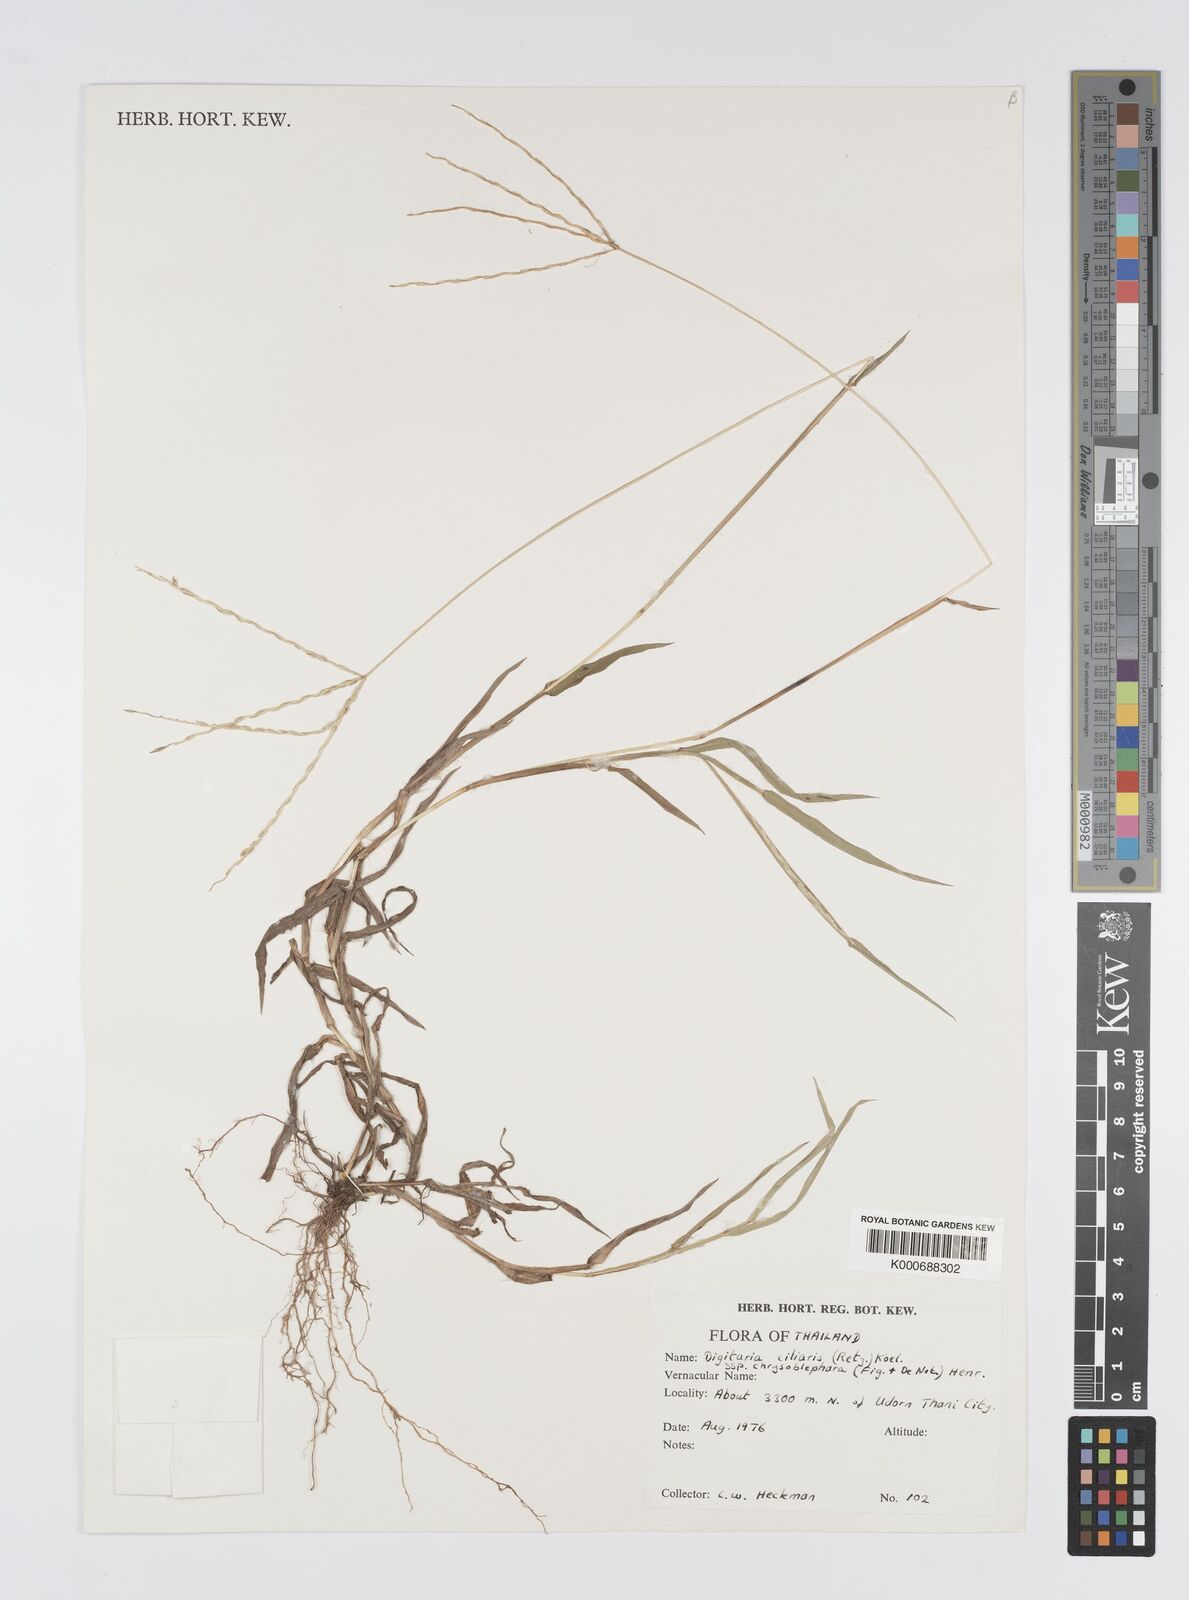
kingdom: Plantae
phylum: Tracheophyta
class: Liliopsida
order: Poales
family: Poaceae
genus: Digitaria
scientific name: Digitaria bicornis
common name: Asian crabgrass
